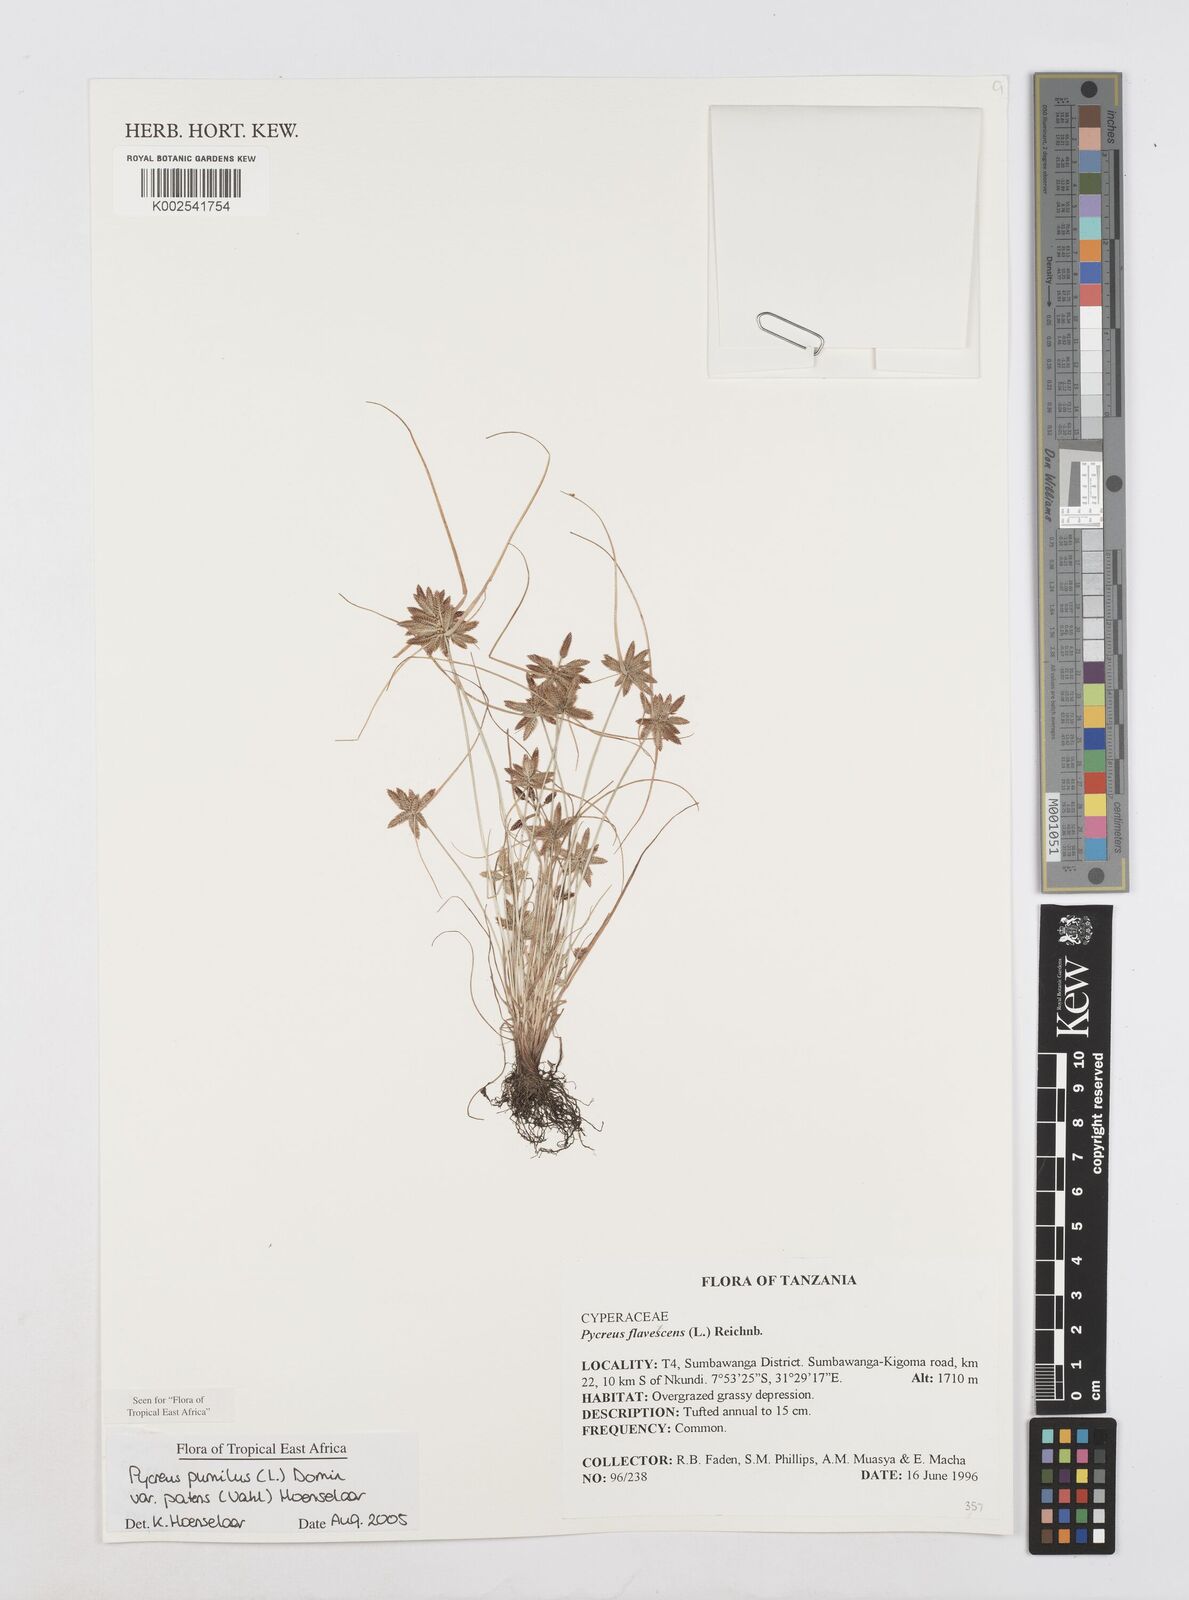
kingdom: Plantae
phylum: Tracheophyta
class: Liliopsida
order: Poales
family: Cyperaceae
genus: Cyperus
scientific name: Cyperus pumilus
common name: Low flatsedge
